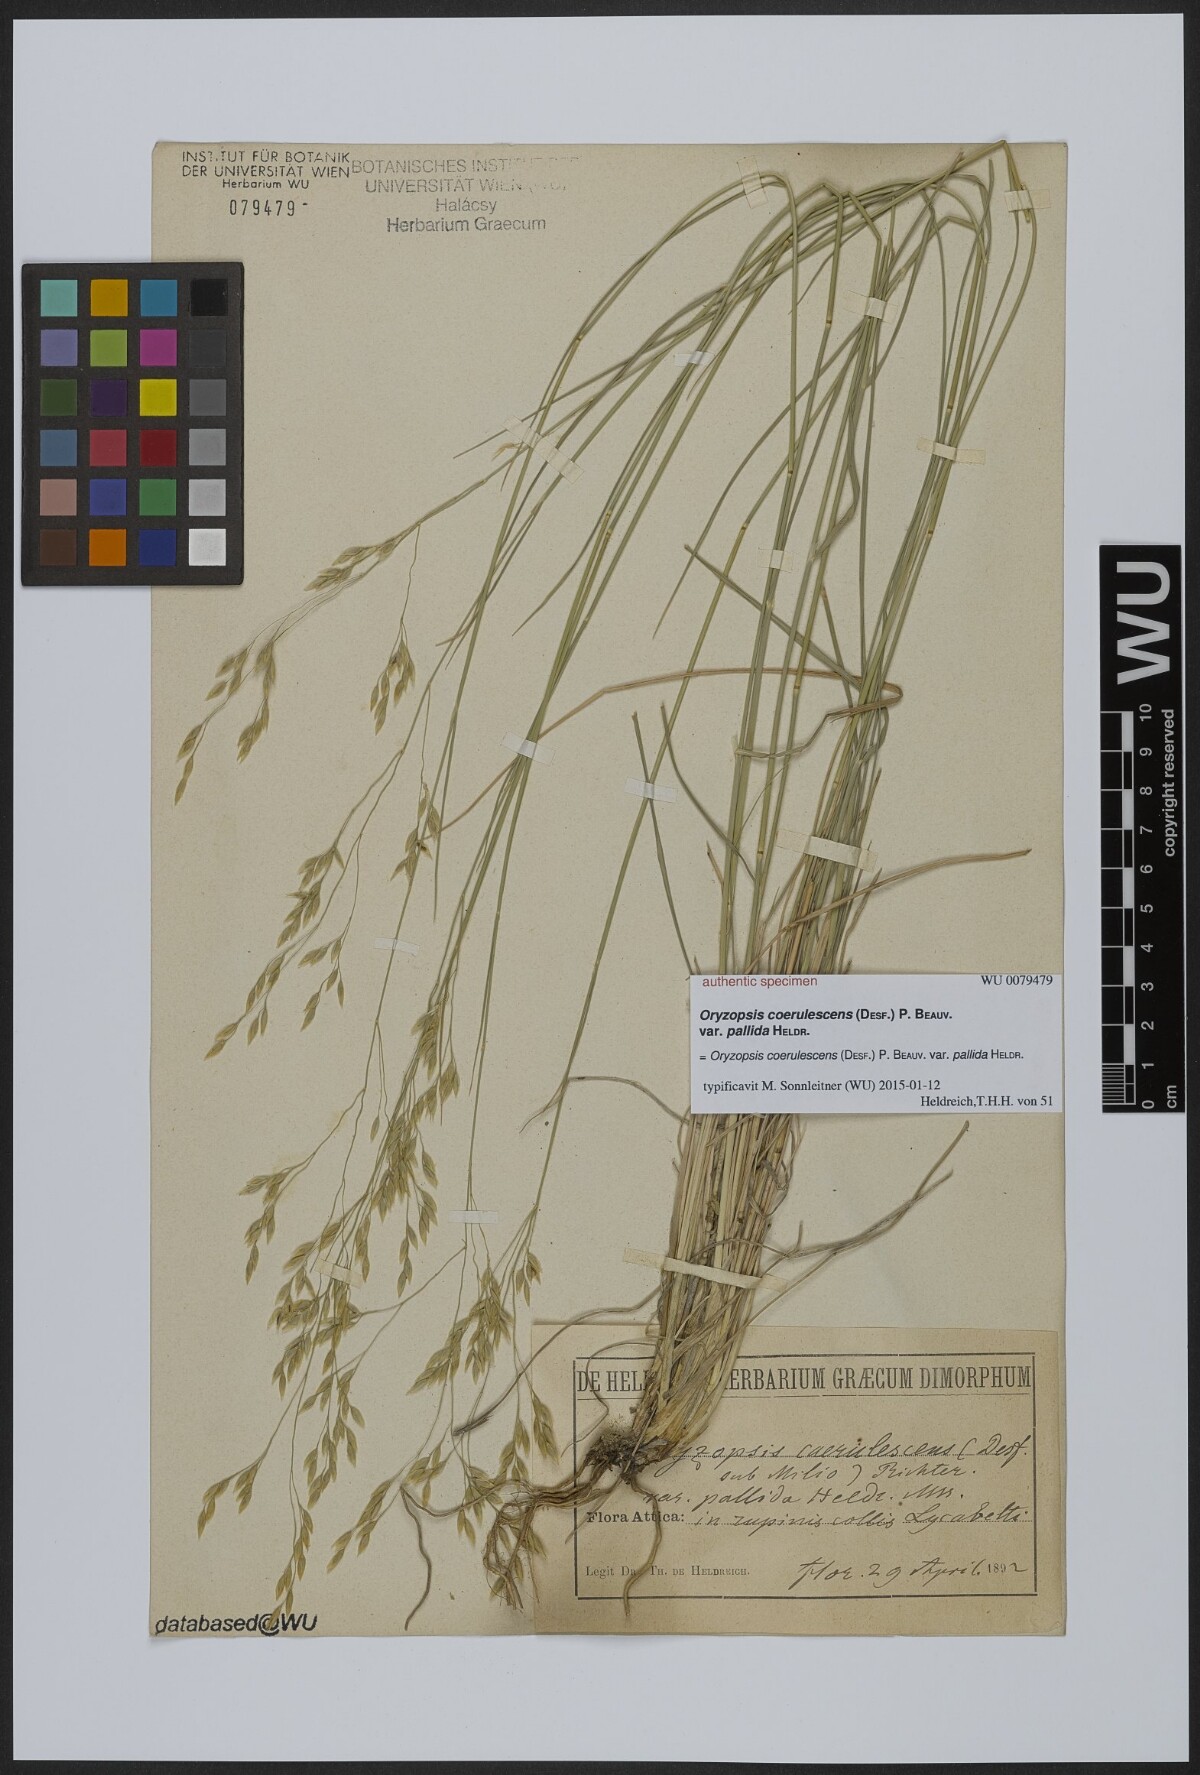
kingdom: Plantae
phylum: Tracheophyta
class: Liliopsida
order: Poales
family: Poaceae
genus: Oryzopsis
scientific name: Oryzopsis coerulescens
